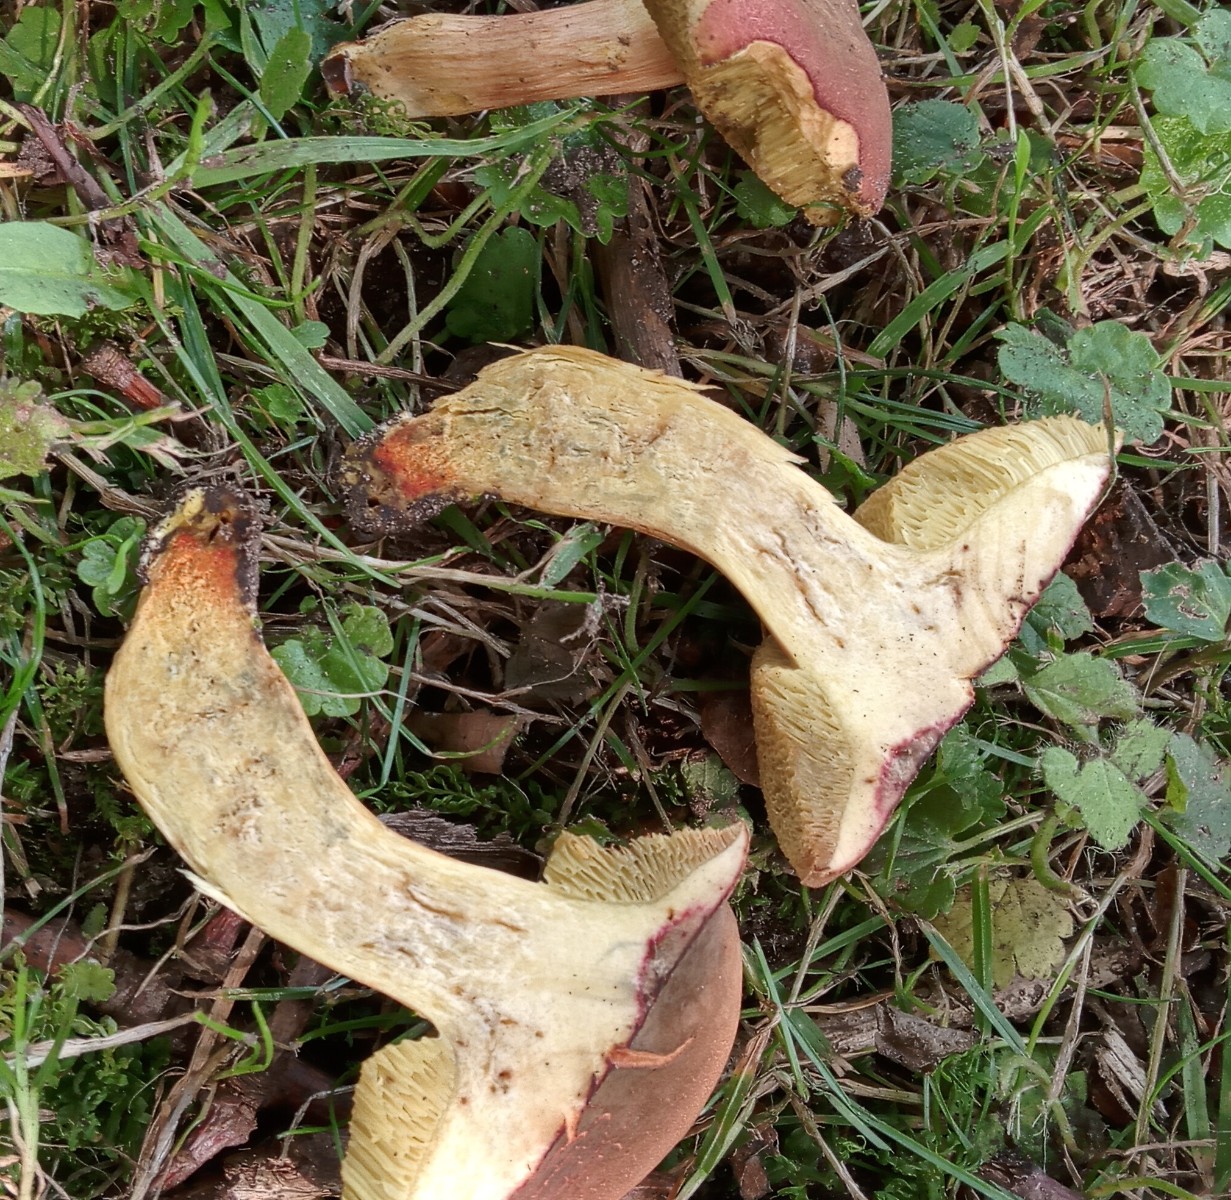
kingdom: Fungi
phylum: Basidiomycota
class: Agaricomycetes
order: Boletales
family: Boletaceae
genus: Hortiboletus
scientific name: Hortiboletus engelii
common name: fersken-rørhat
